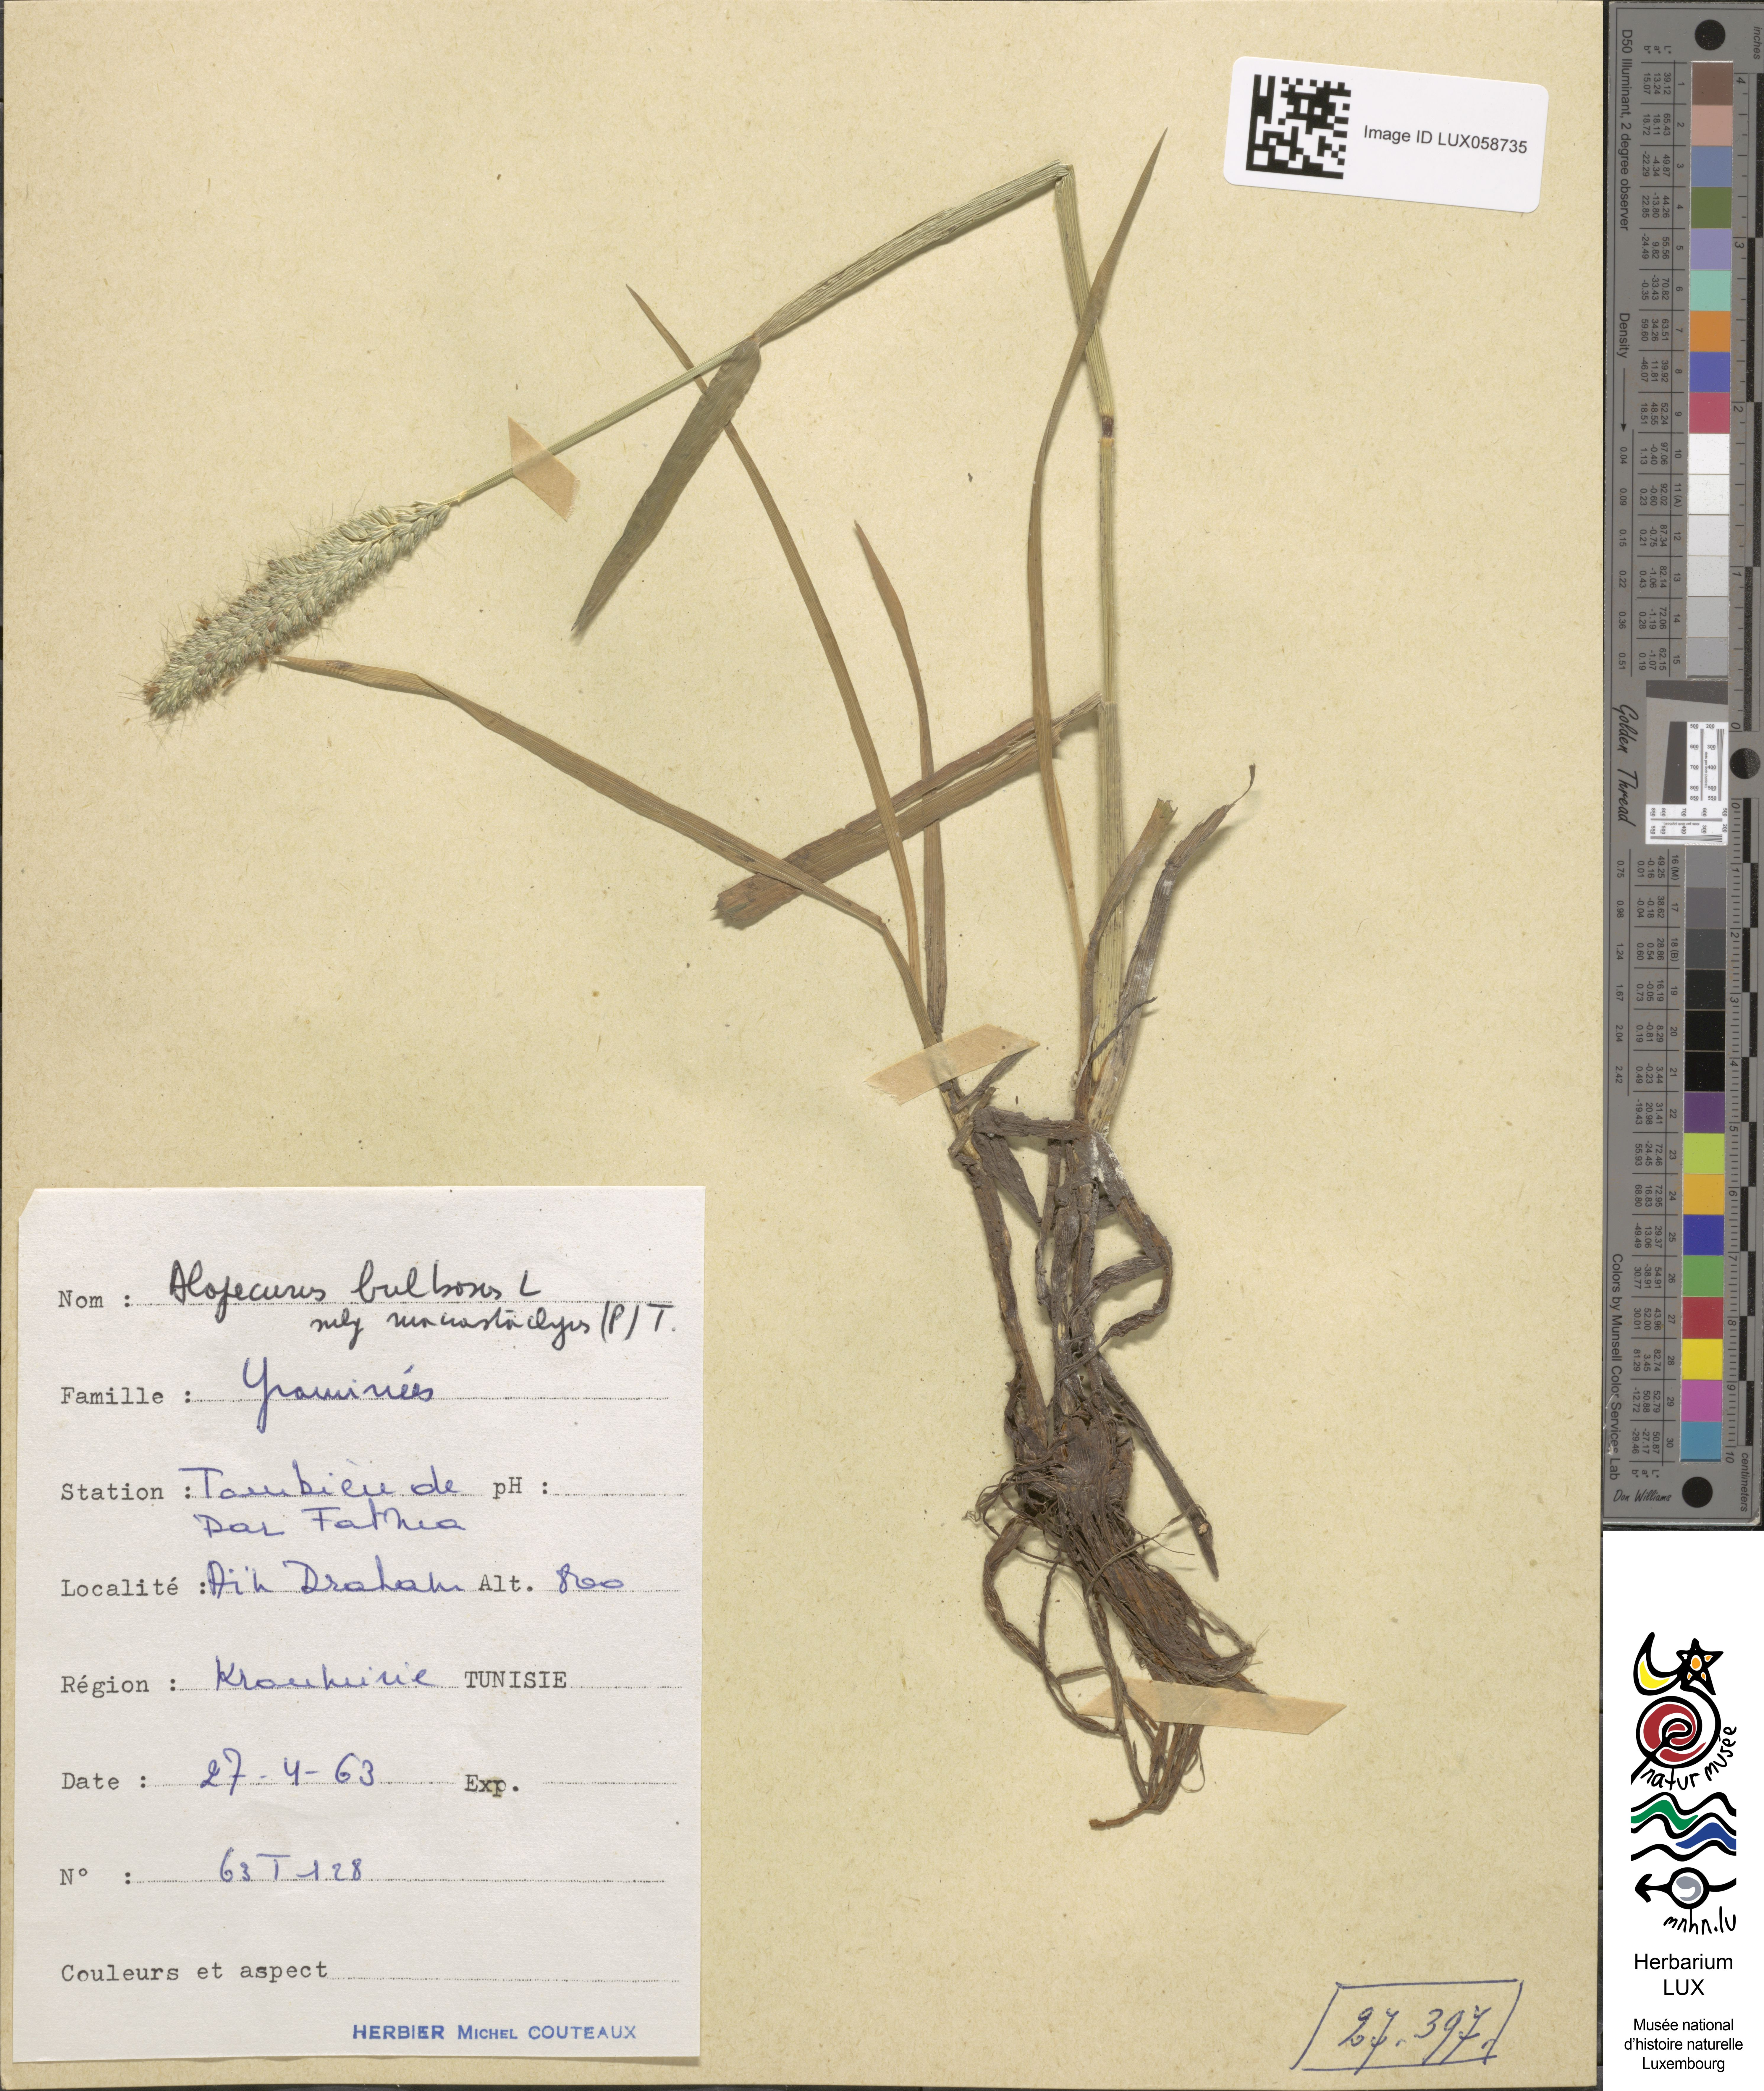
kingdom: Plantae
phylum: Tracheophyta
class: Liliopsida
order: Poales
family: Poaceae
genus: Alopecurus
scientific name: Alopecurus bulbosus
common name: Bulbous foxtail
